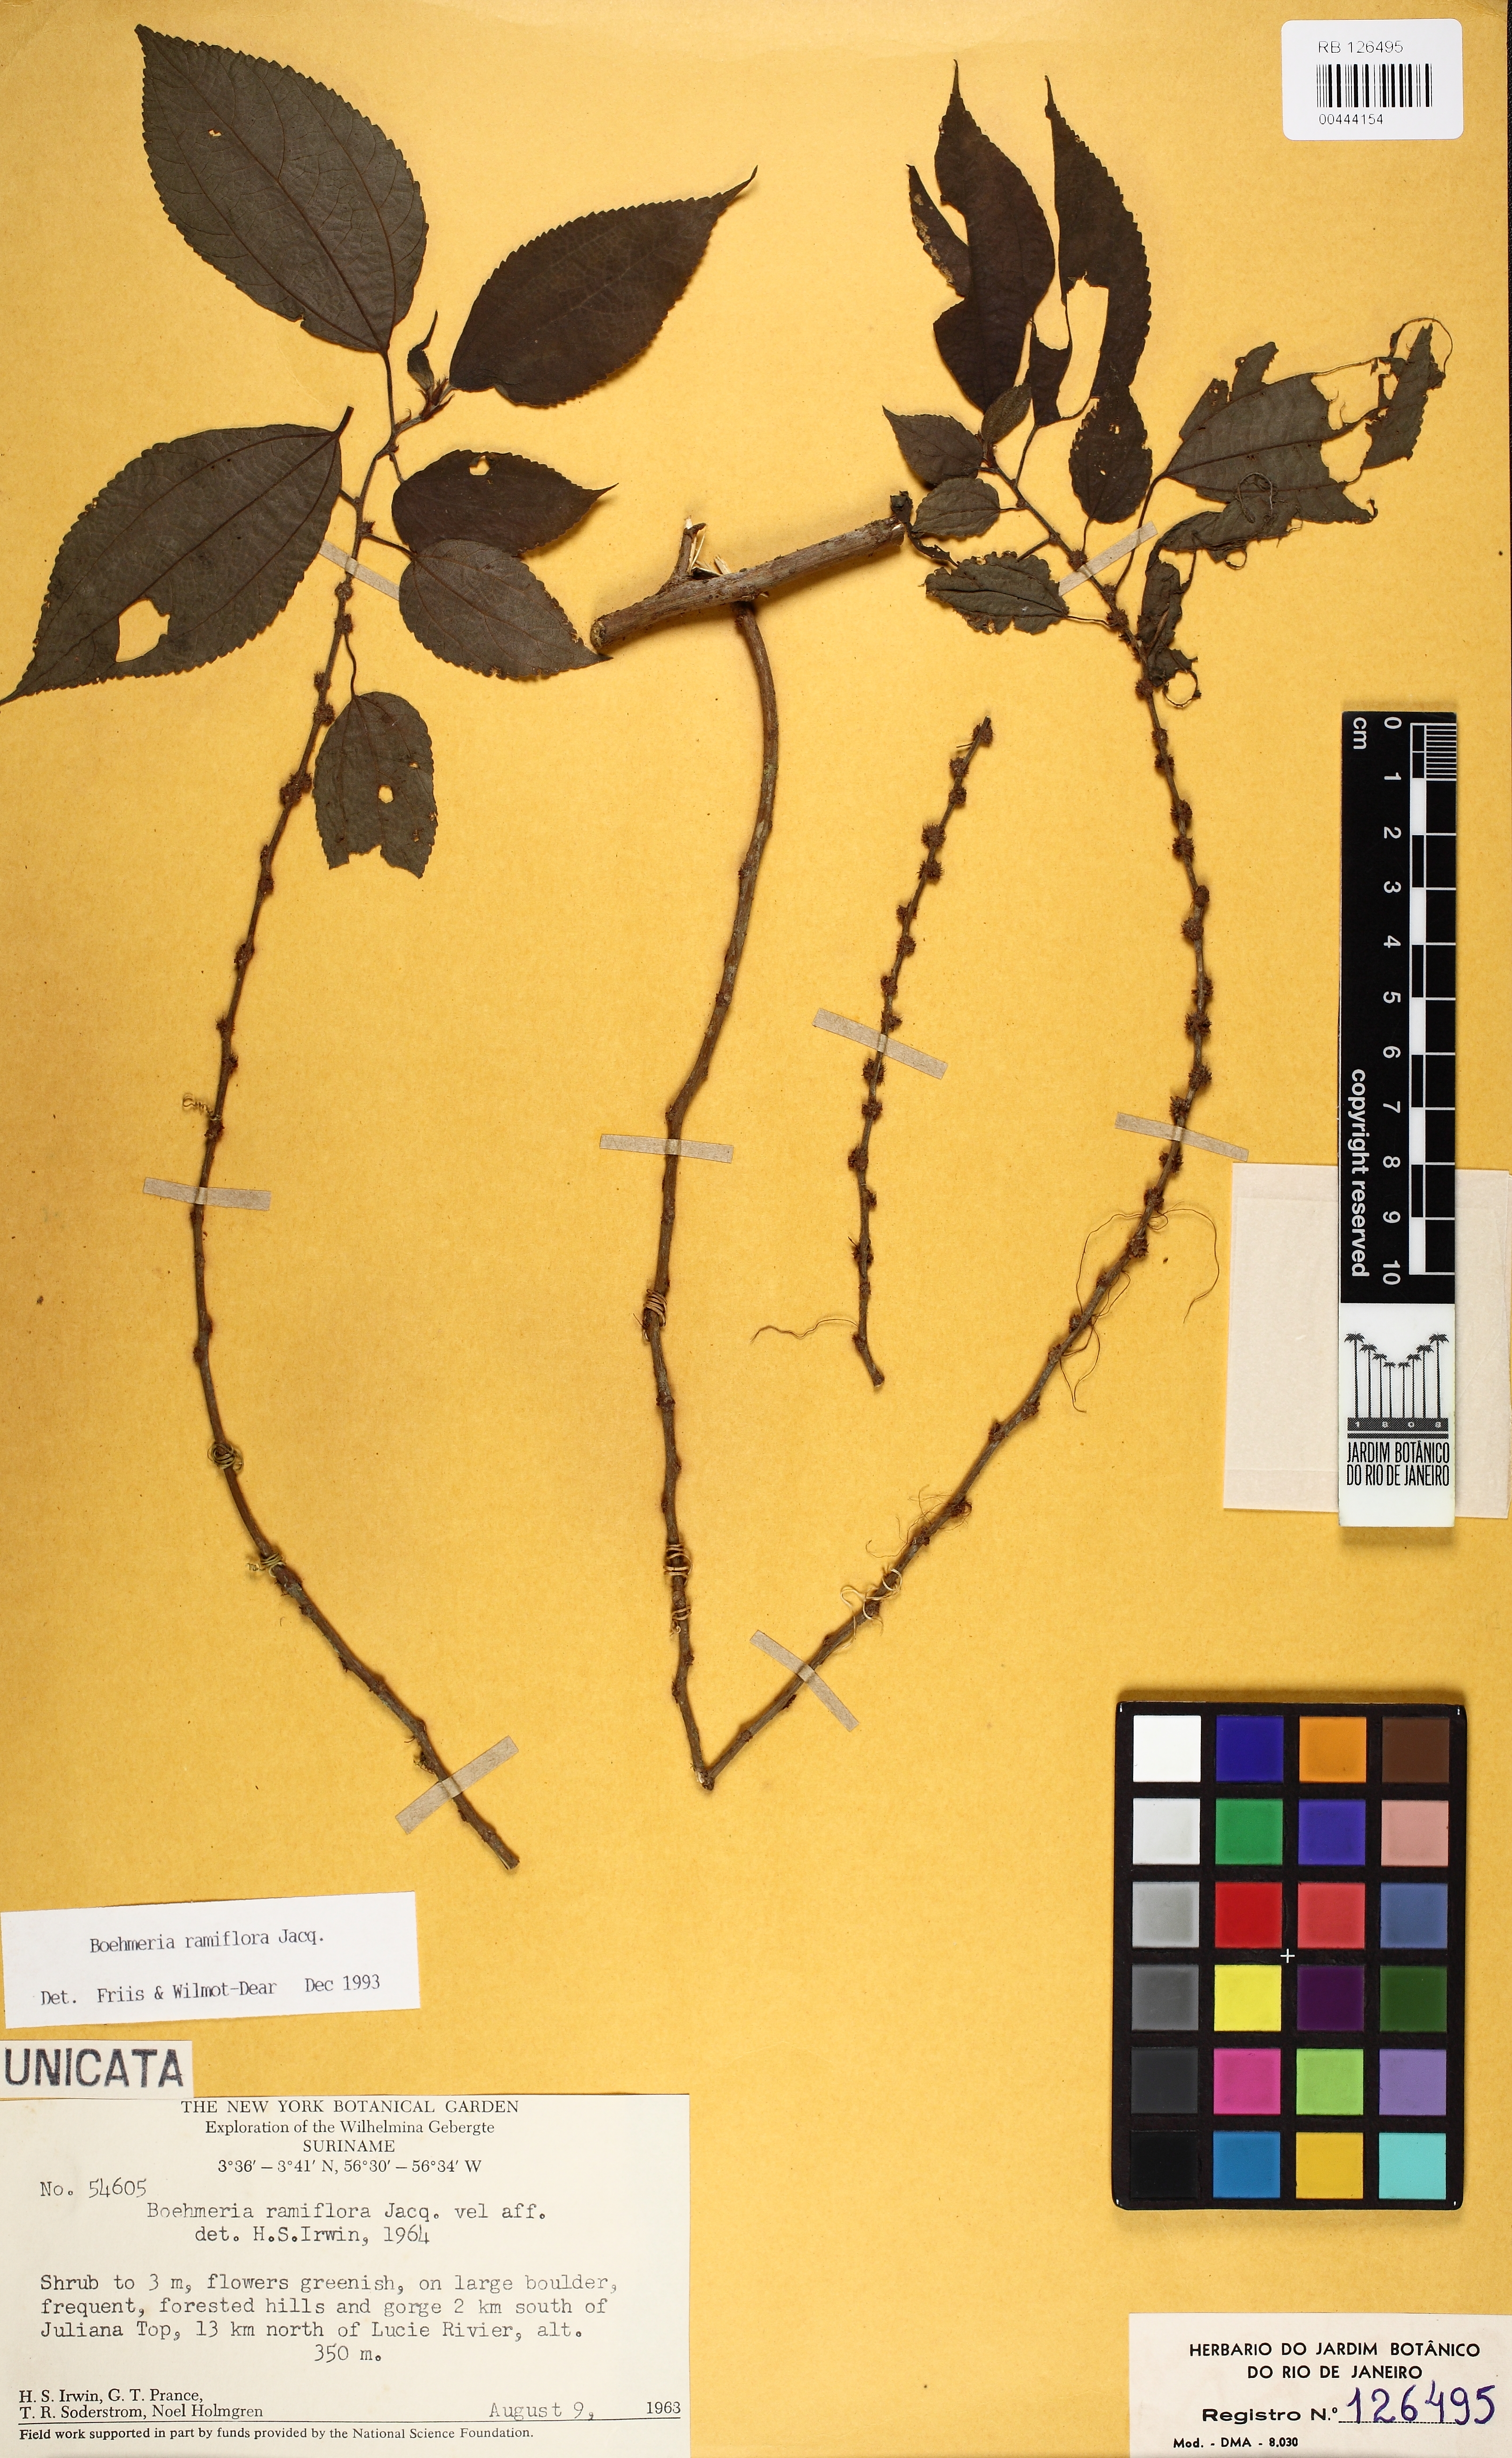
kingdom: Plantae
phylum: Tracheophyta
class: Magnoliopsida
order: Rosales
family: Urticaceae
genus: Boehmeria
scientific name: Boehmeria ramiflora
